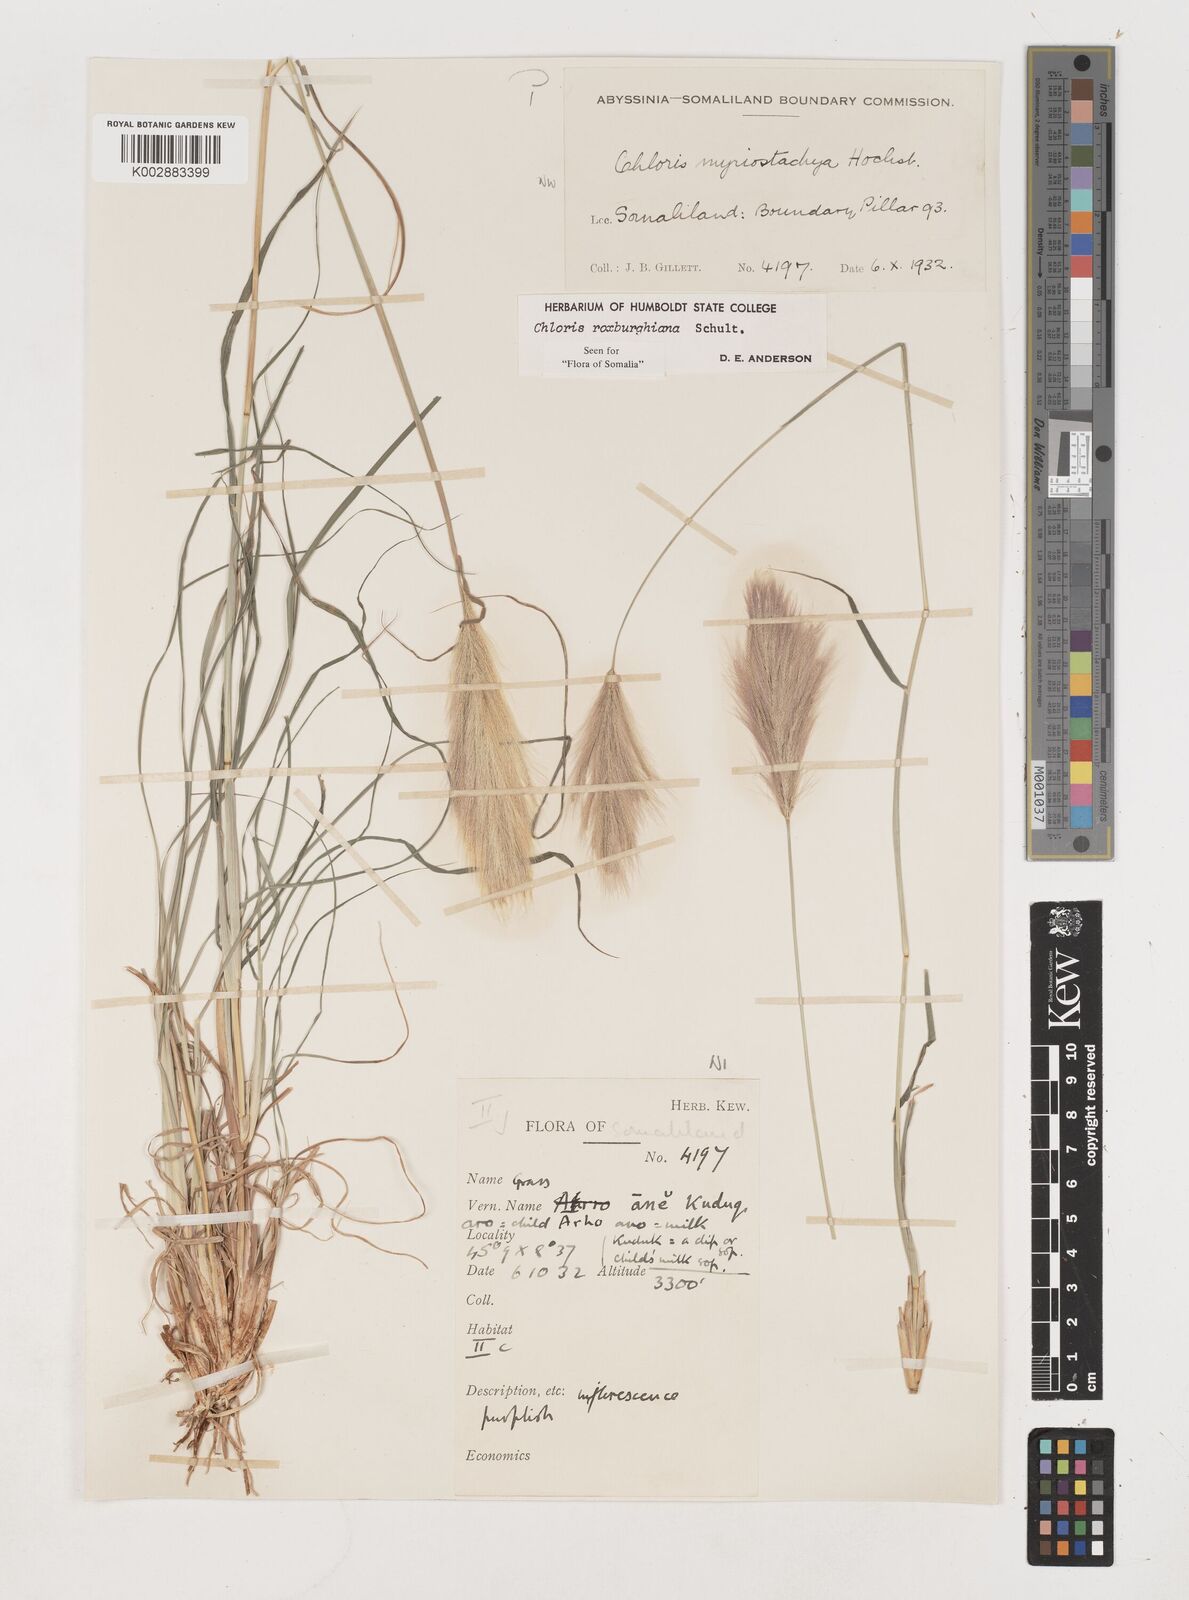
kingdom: Plantae
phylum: Tracheophyta
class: Liliopsida
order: Poales
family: Poaceae
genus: Tetrapogon
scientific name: Tetrapogon roxburghiana
